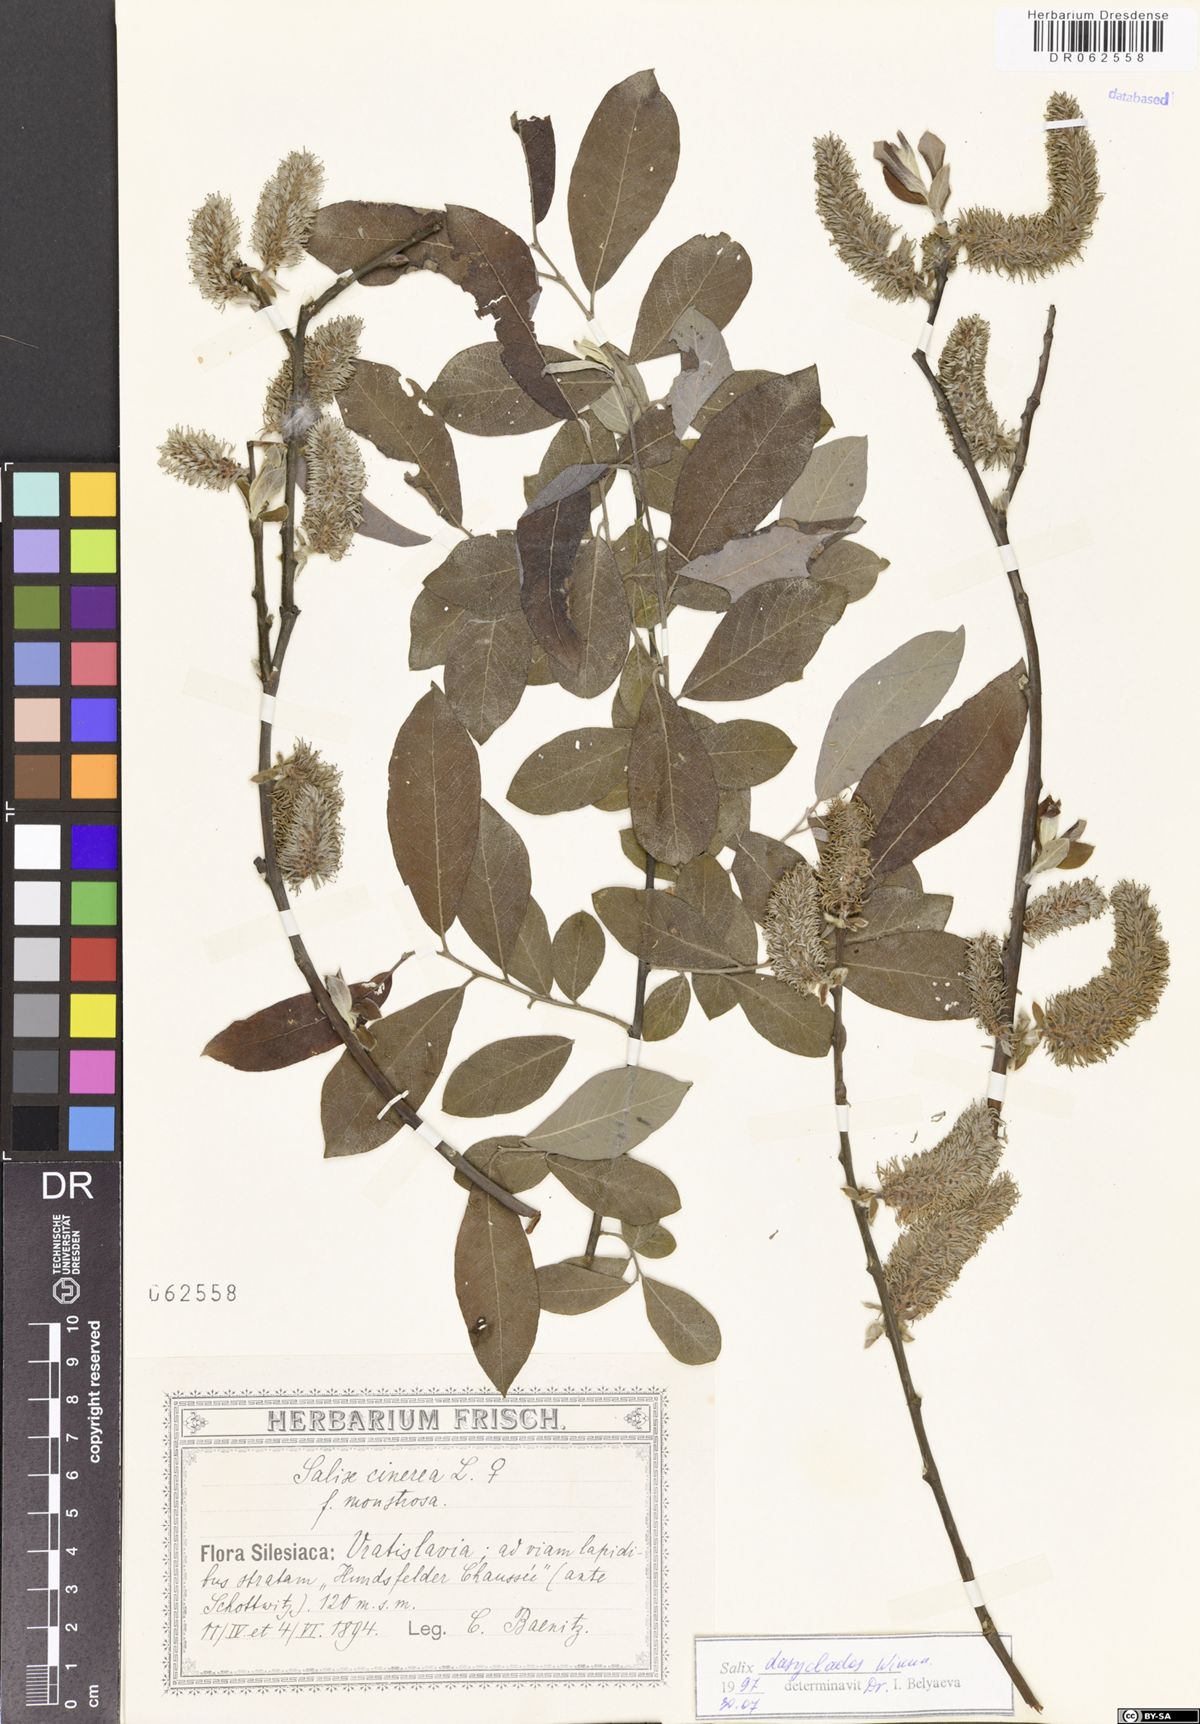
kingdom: Plantae
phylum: Tracheophyta
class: Magnoliopsida
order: Malpighiales
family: Salicaceae
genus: Salix
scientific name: Salix gmelinii
